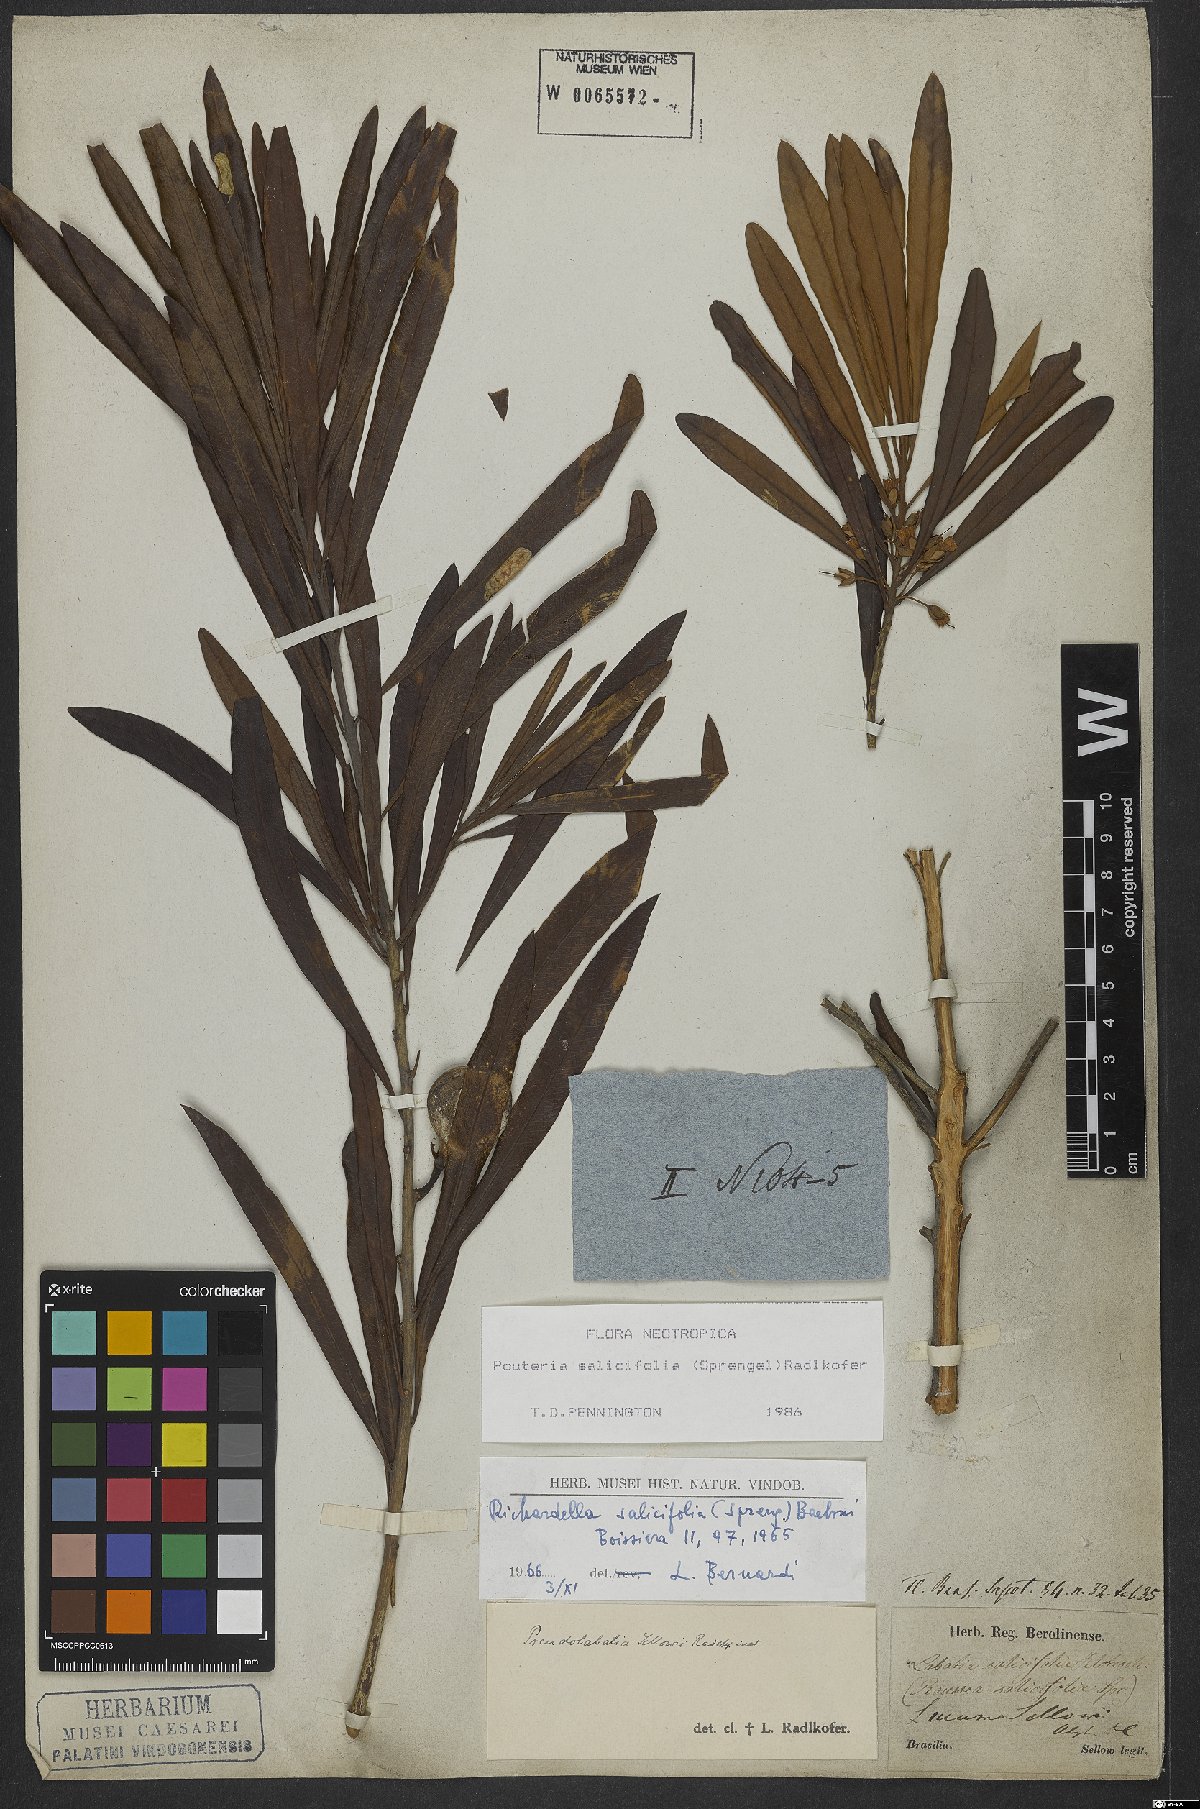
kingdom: Plantae
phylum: Tracheophyta
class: Magnoliopsida
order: Ericales
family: Sapotaceae
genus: Pouteria
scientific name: Pouteria salicifolia
